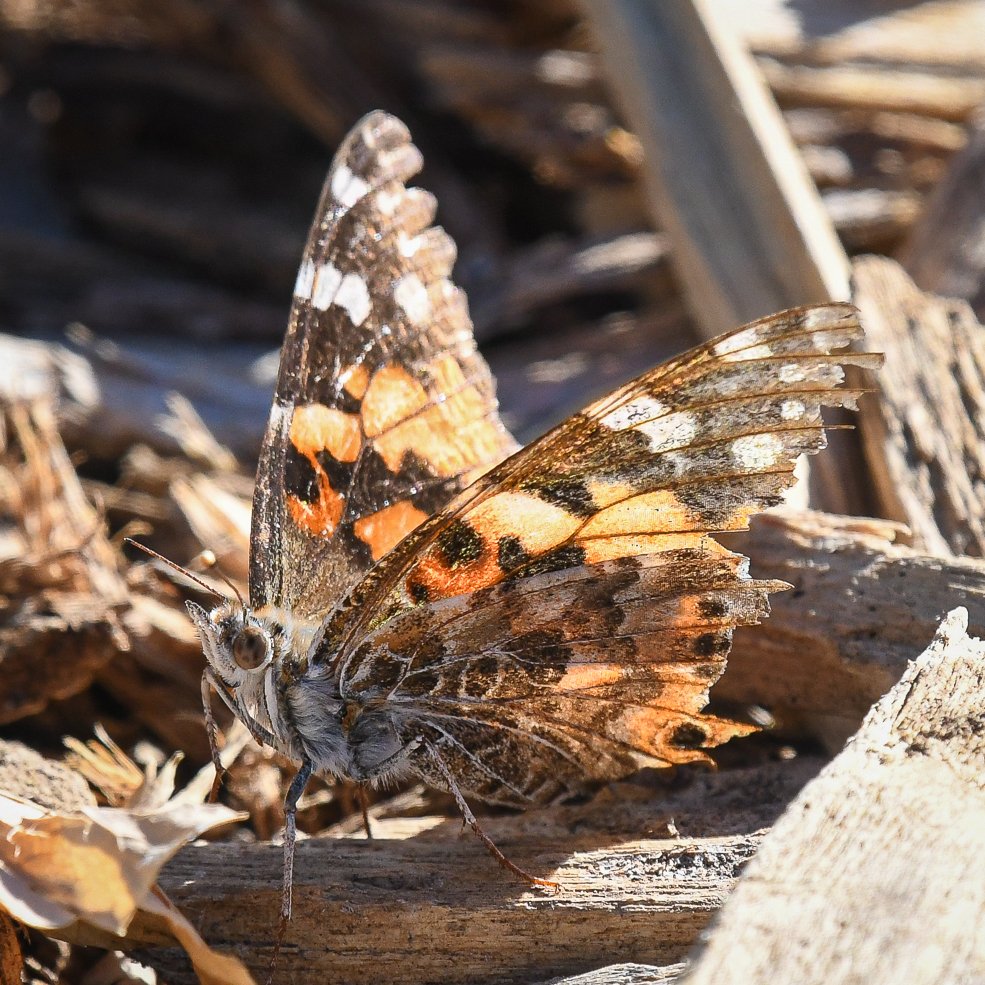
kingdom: Animalia
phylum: Arthropoda
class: Insecta
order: Lepidoptera
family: Nymphalidae
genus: Vanessa
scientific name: Vanessa cardui
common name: Painted Lady
